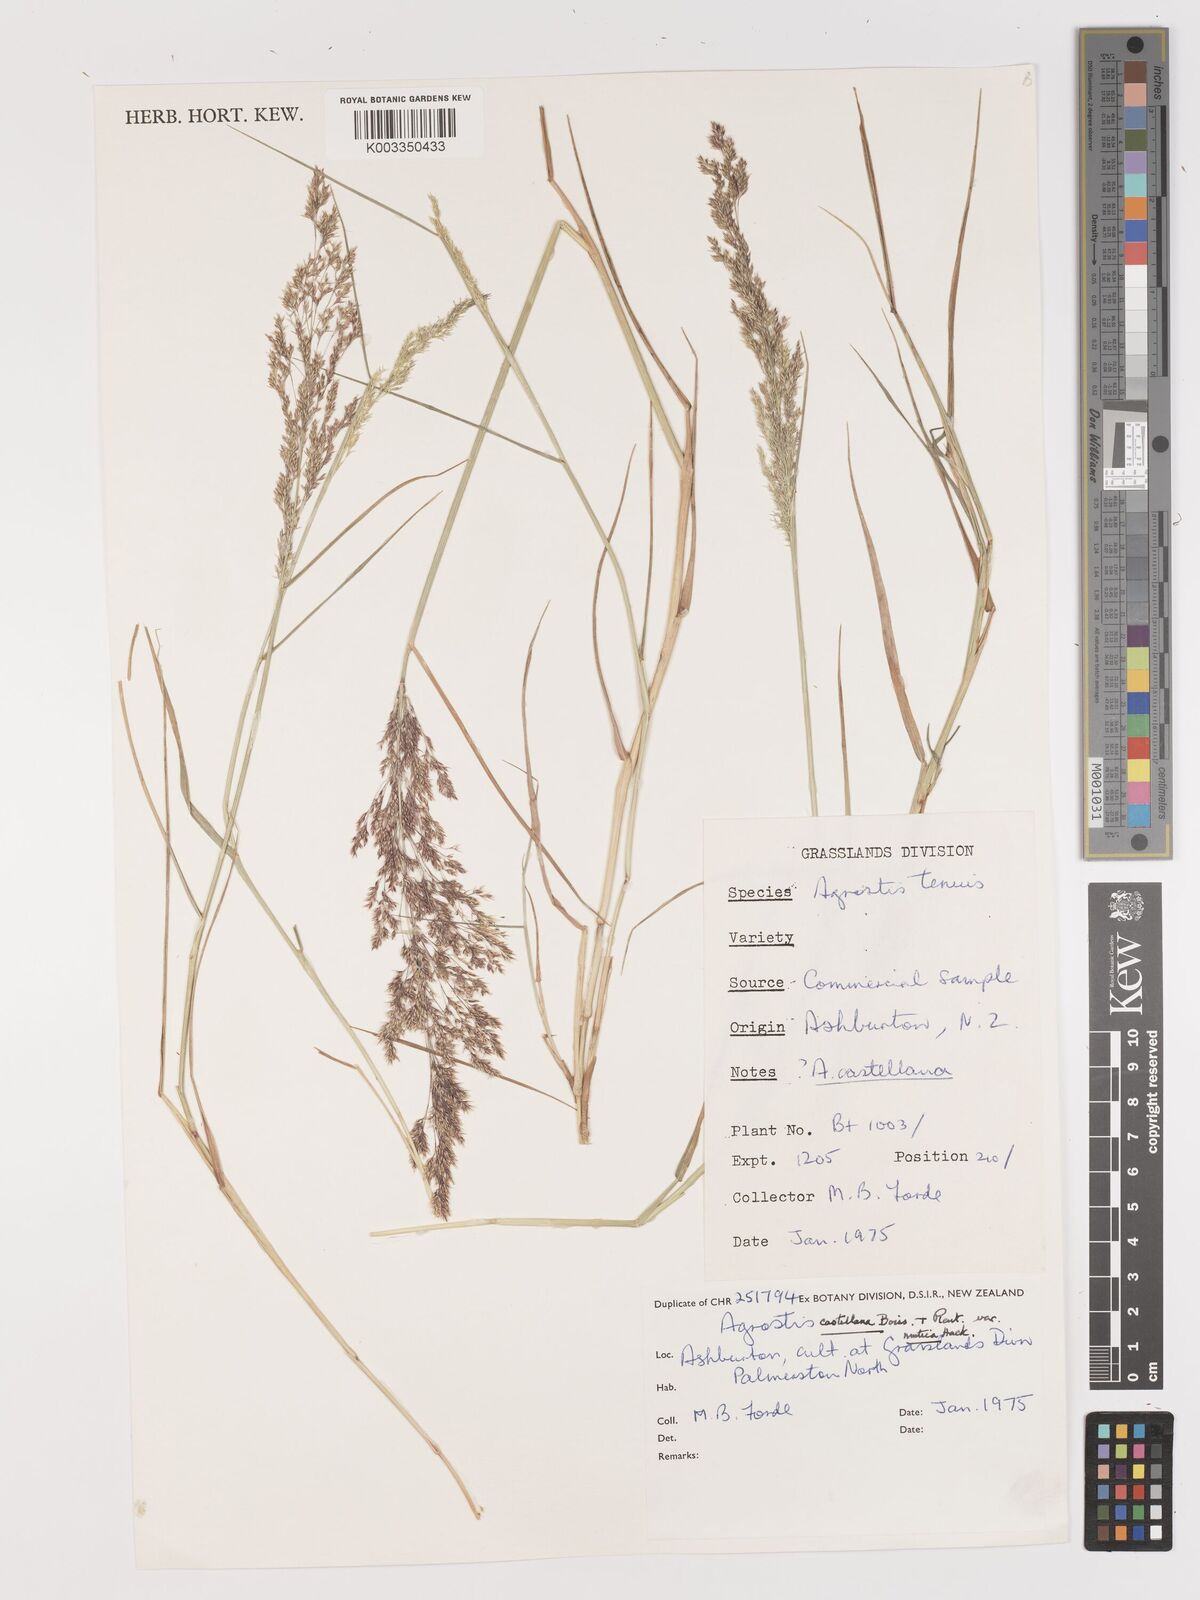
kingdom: Plantae
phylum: Tracheophyta
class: Liliopsida
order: Poales
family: Poaceae
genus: Agrostis
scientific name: Agrostis castellana
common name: Highland bent
